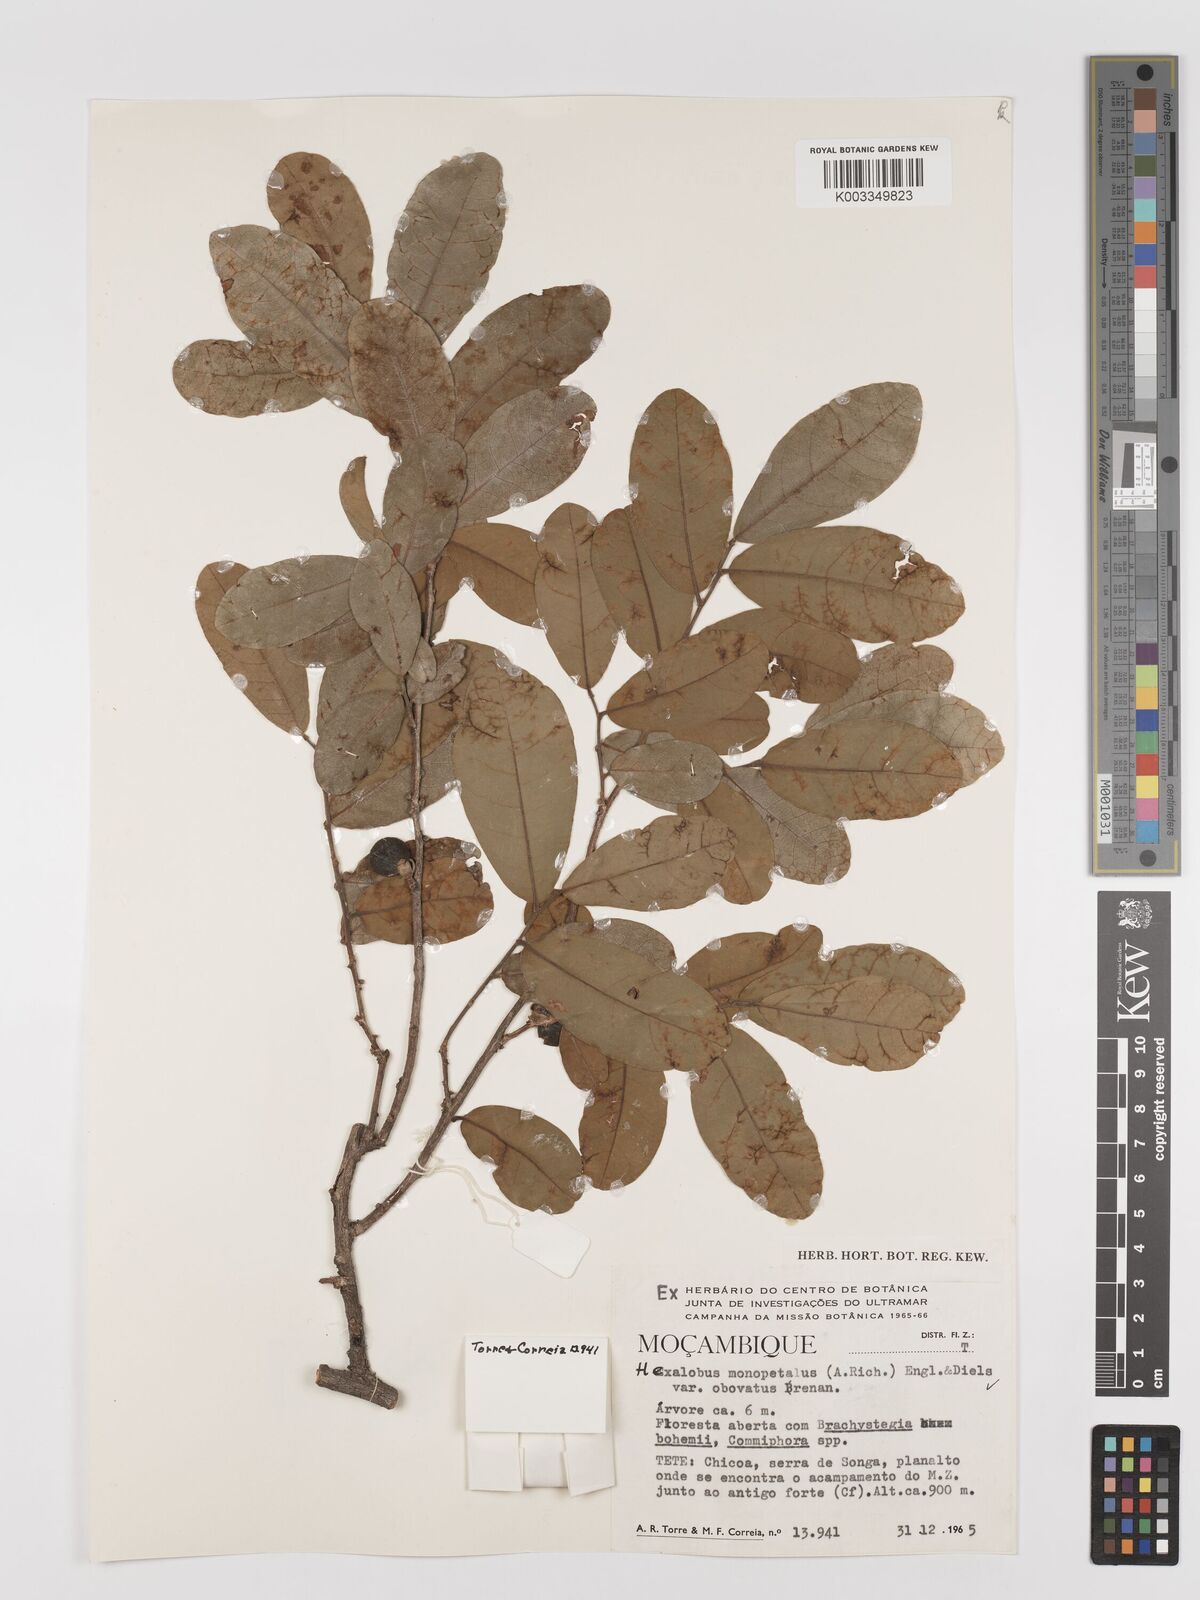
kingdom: Plantae
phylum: Tracheophyta
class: Magnoliopsida
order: Magnoliales
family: Annonaceae
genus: Hexalobus
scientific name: Hexalobus monopetalus
